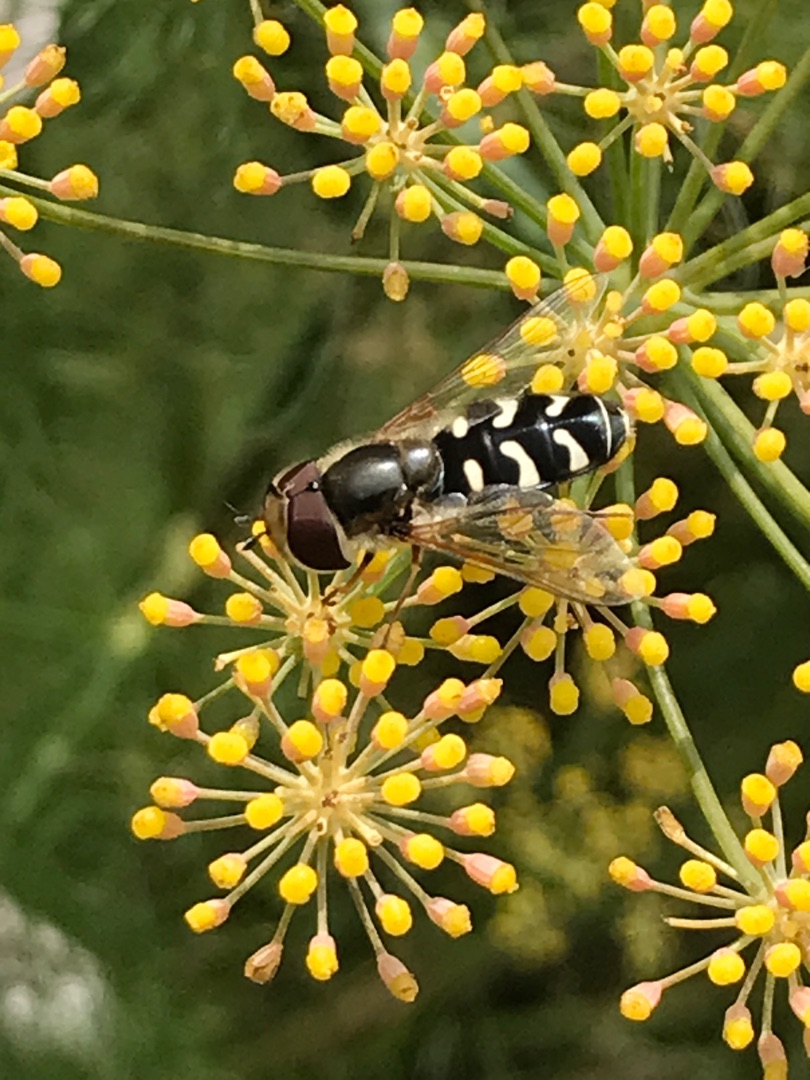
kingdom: Animalia
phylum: Arthropoda
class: Insecta
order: Diptera
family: Syrphidae
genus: Scaeva
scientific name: Scaeva pyrastri
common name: Hvidplettet agersvirreflue
